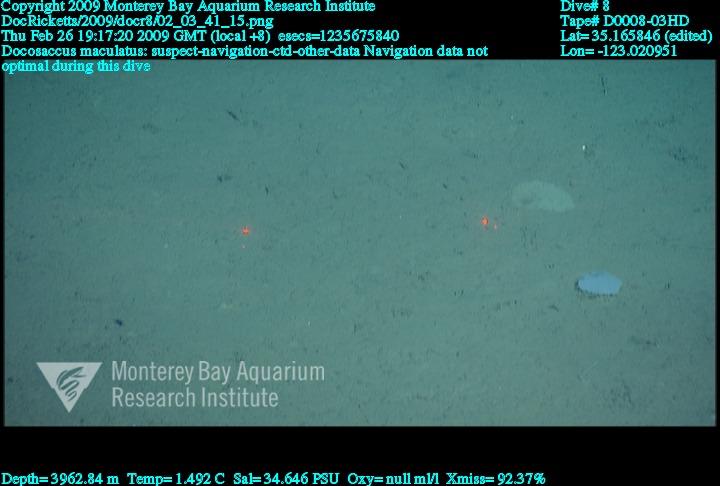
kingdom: Animalia
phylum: Porifera
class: Hexactinellida
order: Lyssacinosida
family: Euplectellidae
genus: Docosaccus
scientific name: Docosaccus maculatus
